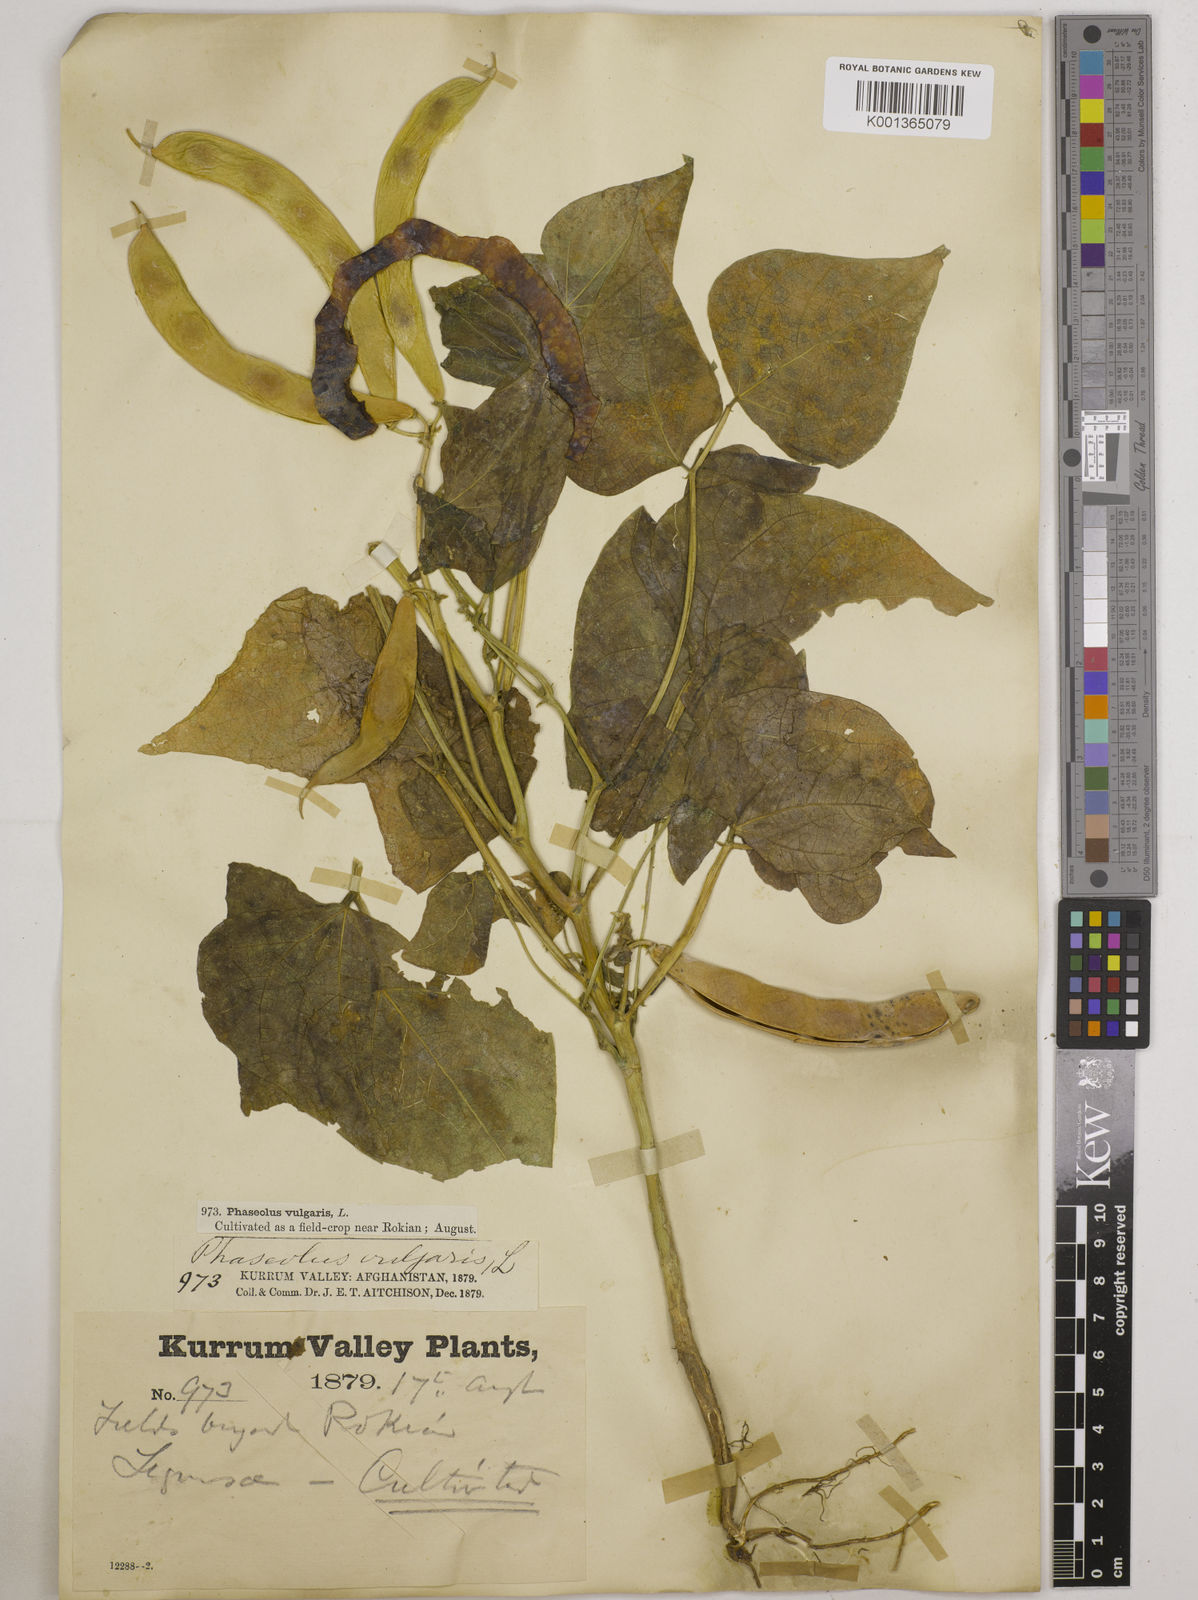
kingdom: Plantae
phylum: Tracheophyta
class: Magnoliopsida
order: Fabales
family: Fabaceae
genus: Phaseolus
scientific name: Phaseolus vulgaris
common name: Bean
